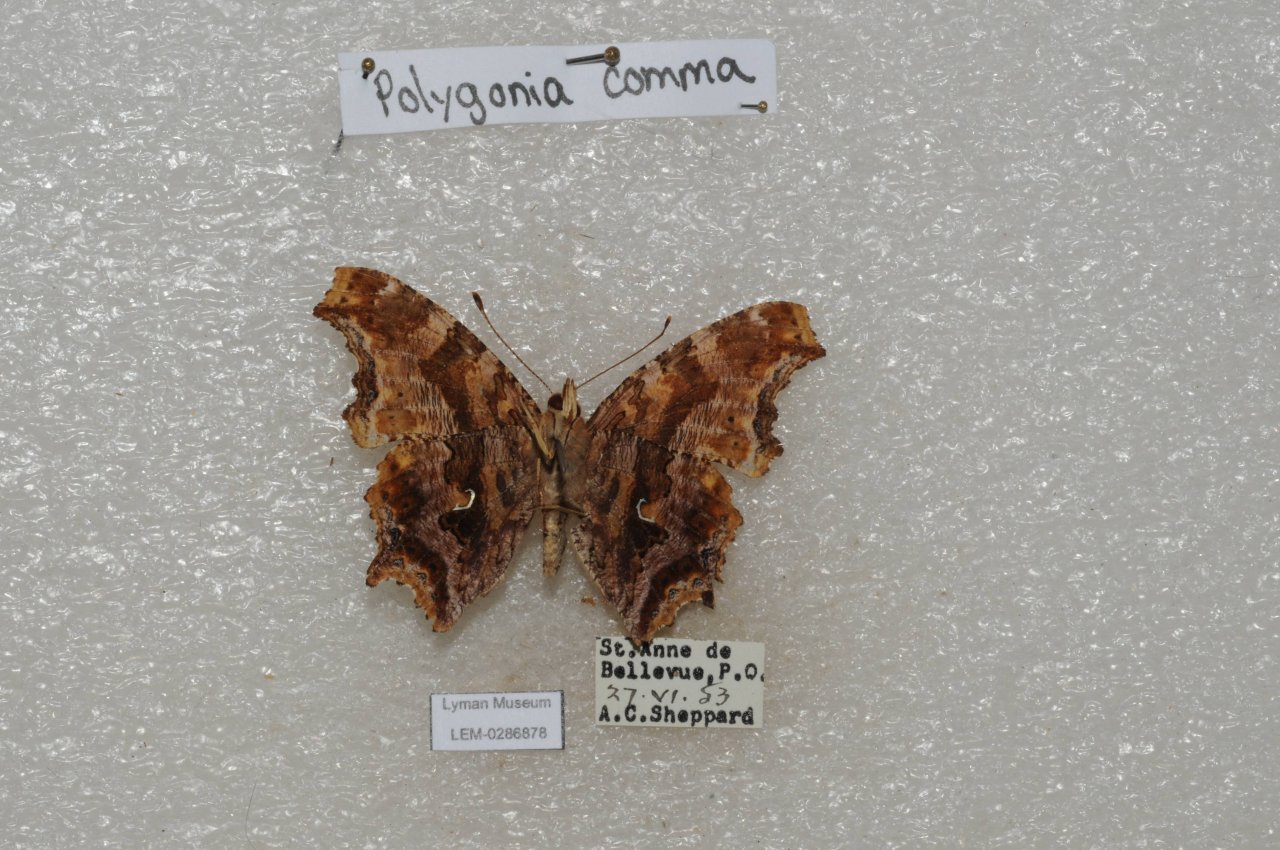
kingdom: Animalia
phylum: Arthropoda
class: Insecta
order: Lepidoptera
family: Nymphalidae
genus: Polygonia
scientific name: Polygonia comma
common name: Eastern Comma
